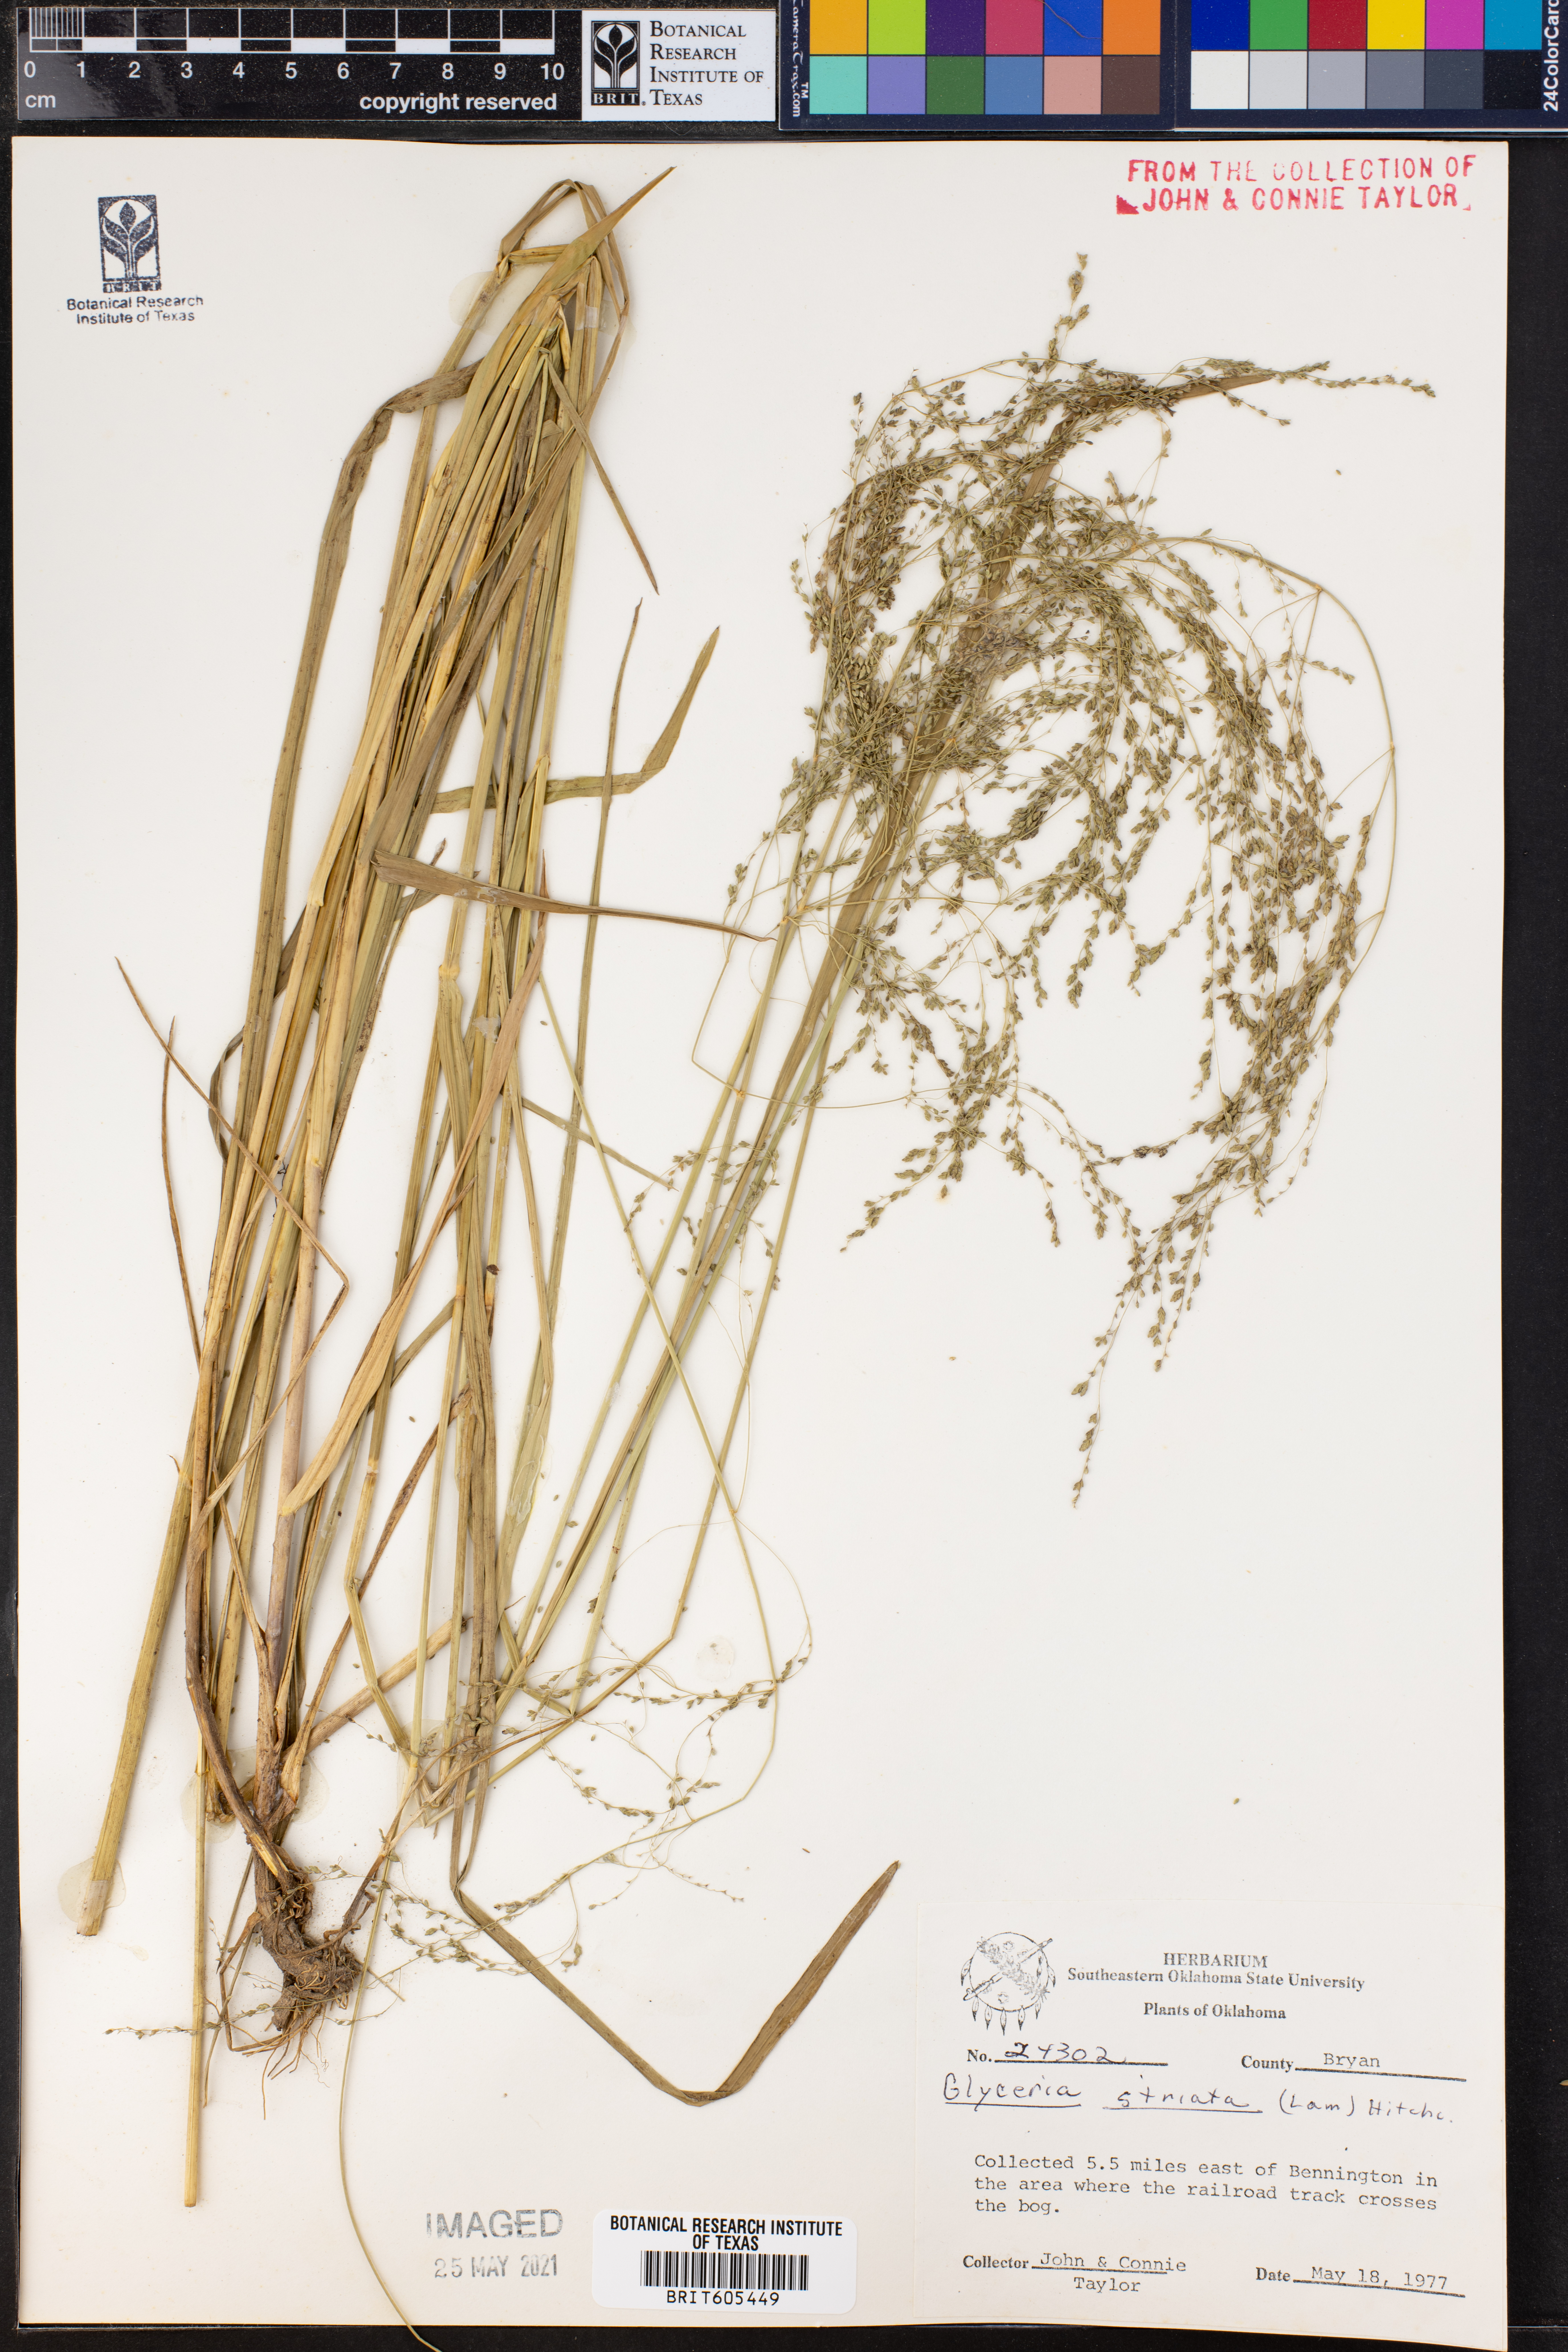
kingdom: Plantae
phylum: Tracheophyta
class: Liliopsida
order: Poales
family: Poaceae
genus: Glyceria
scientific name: Glyceria striata
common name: Fowl manna grass
